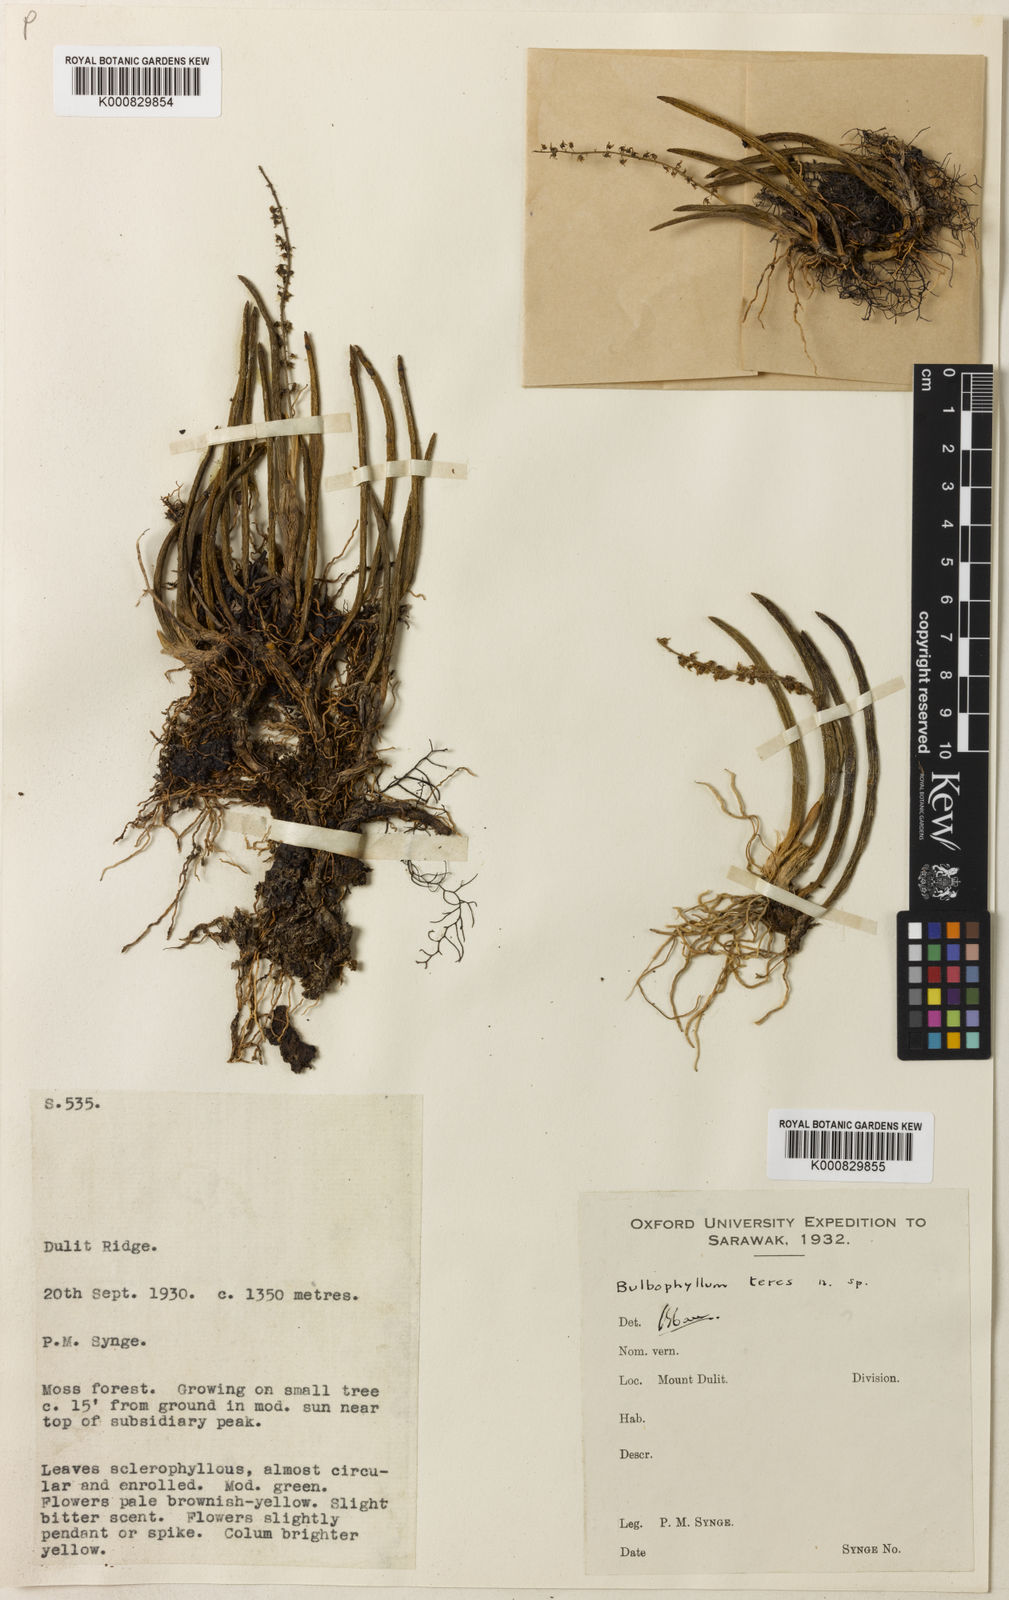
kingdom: Plantae
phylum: Tracheophyta
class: Liliopsida
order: Asparagales
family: Orchidaceae
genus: Bulbophyllum
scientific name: Bulbophyllum unguiculatum
